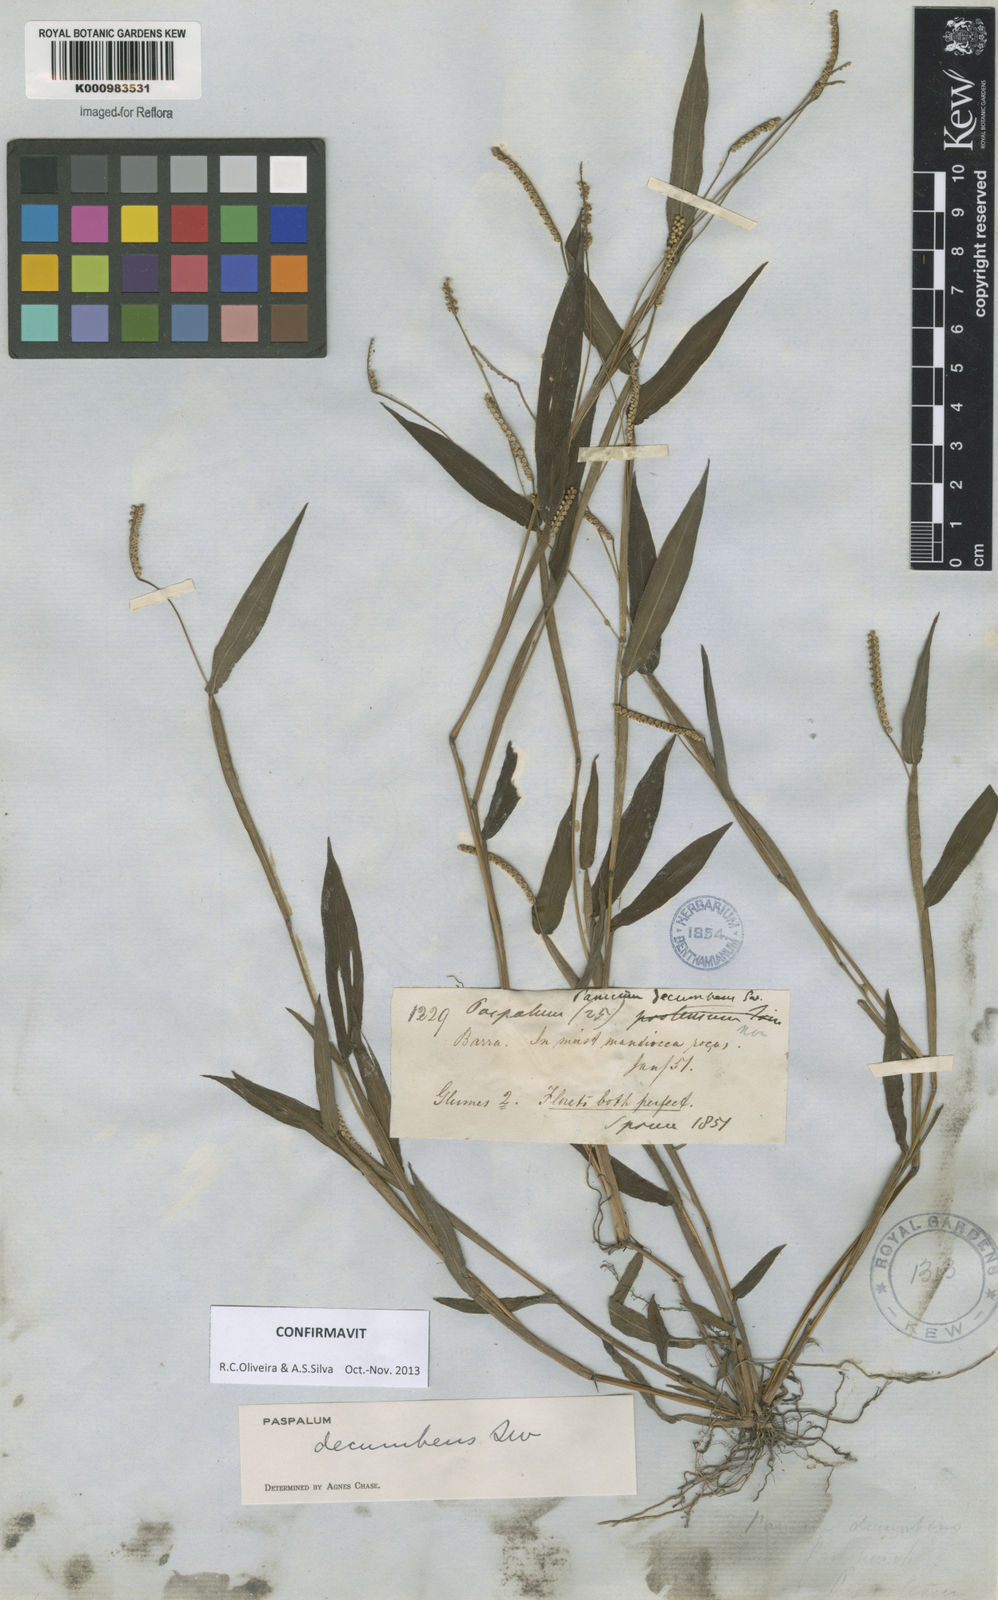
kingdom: Plantae
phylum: Tracheophyta
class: Liliopsida
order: Poales
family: Poaceae
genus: Paspalum
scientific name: Paspalum decumbens
